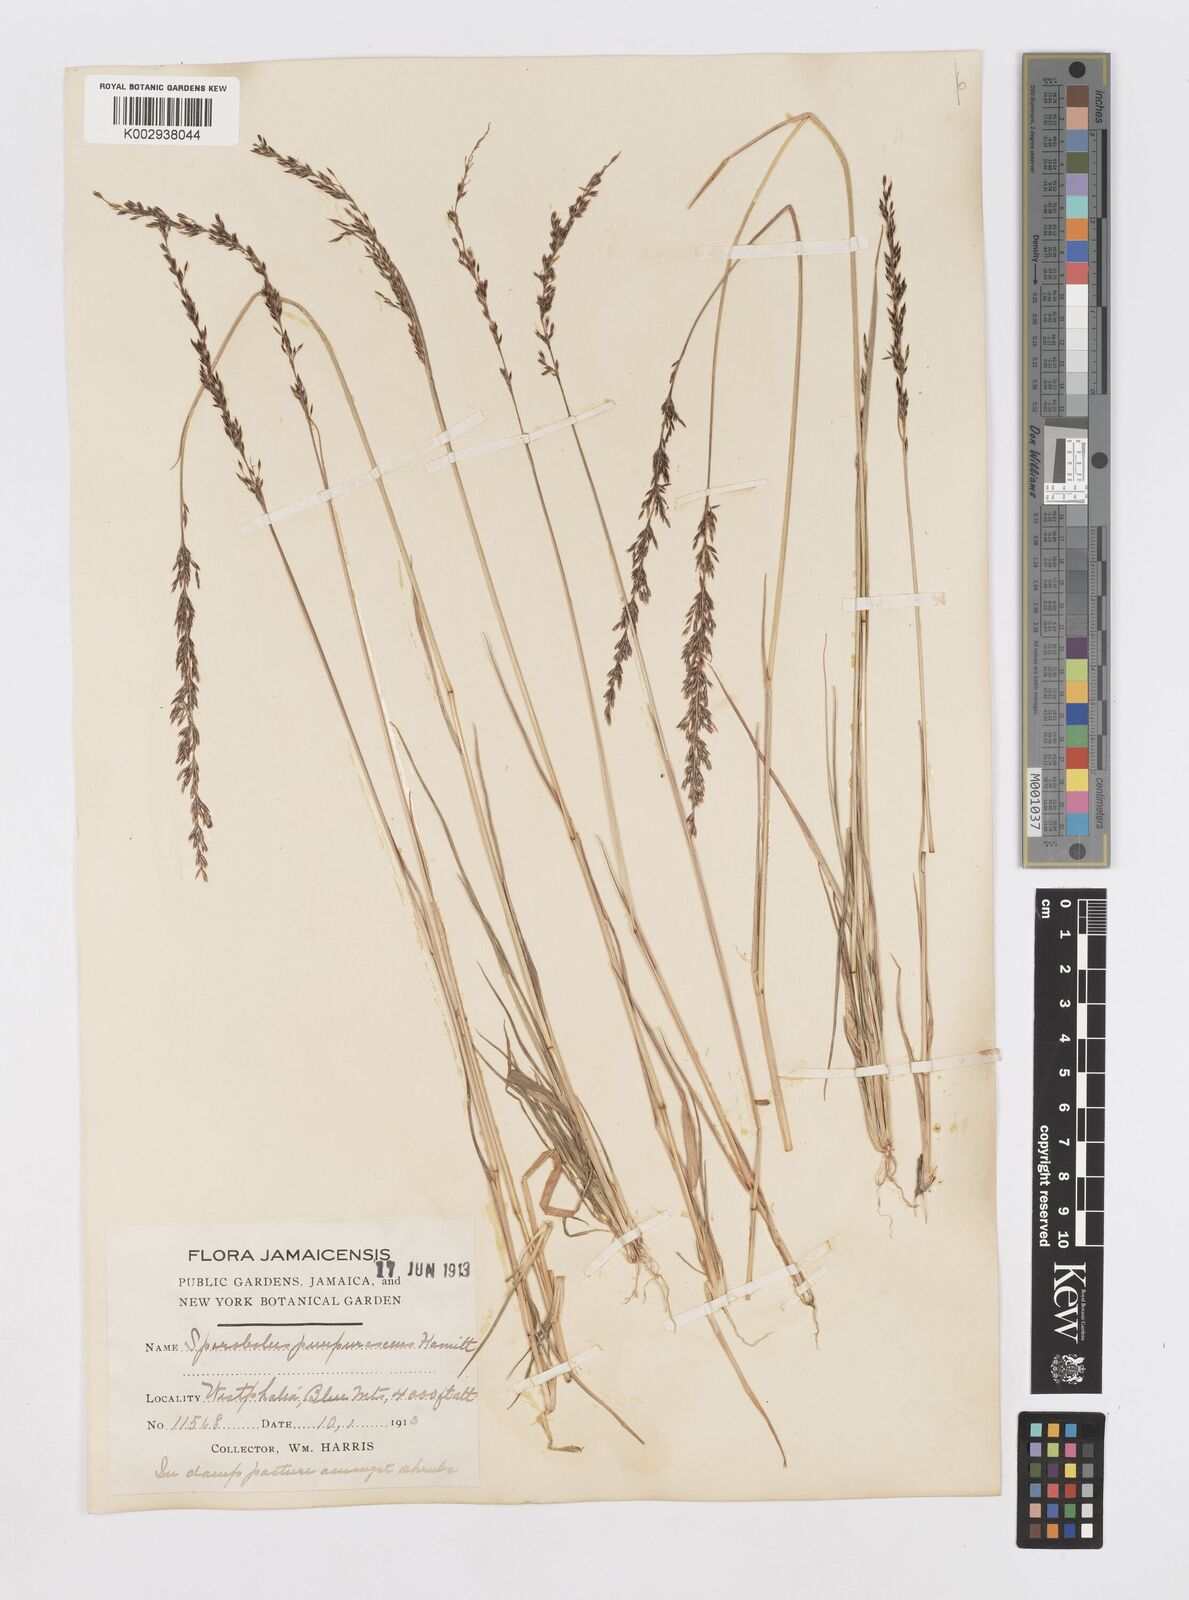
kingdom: Plantae
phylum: Tracheophyta
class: Liliopsida
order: Poales
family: Poaceae
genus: Sporobolus
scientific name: Sporobolus purpurascens
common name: Purple dropseed
